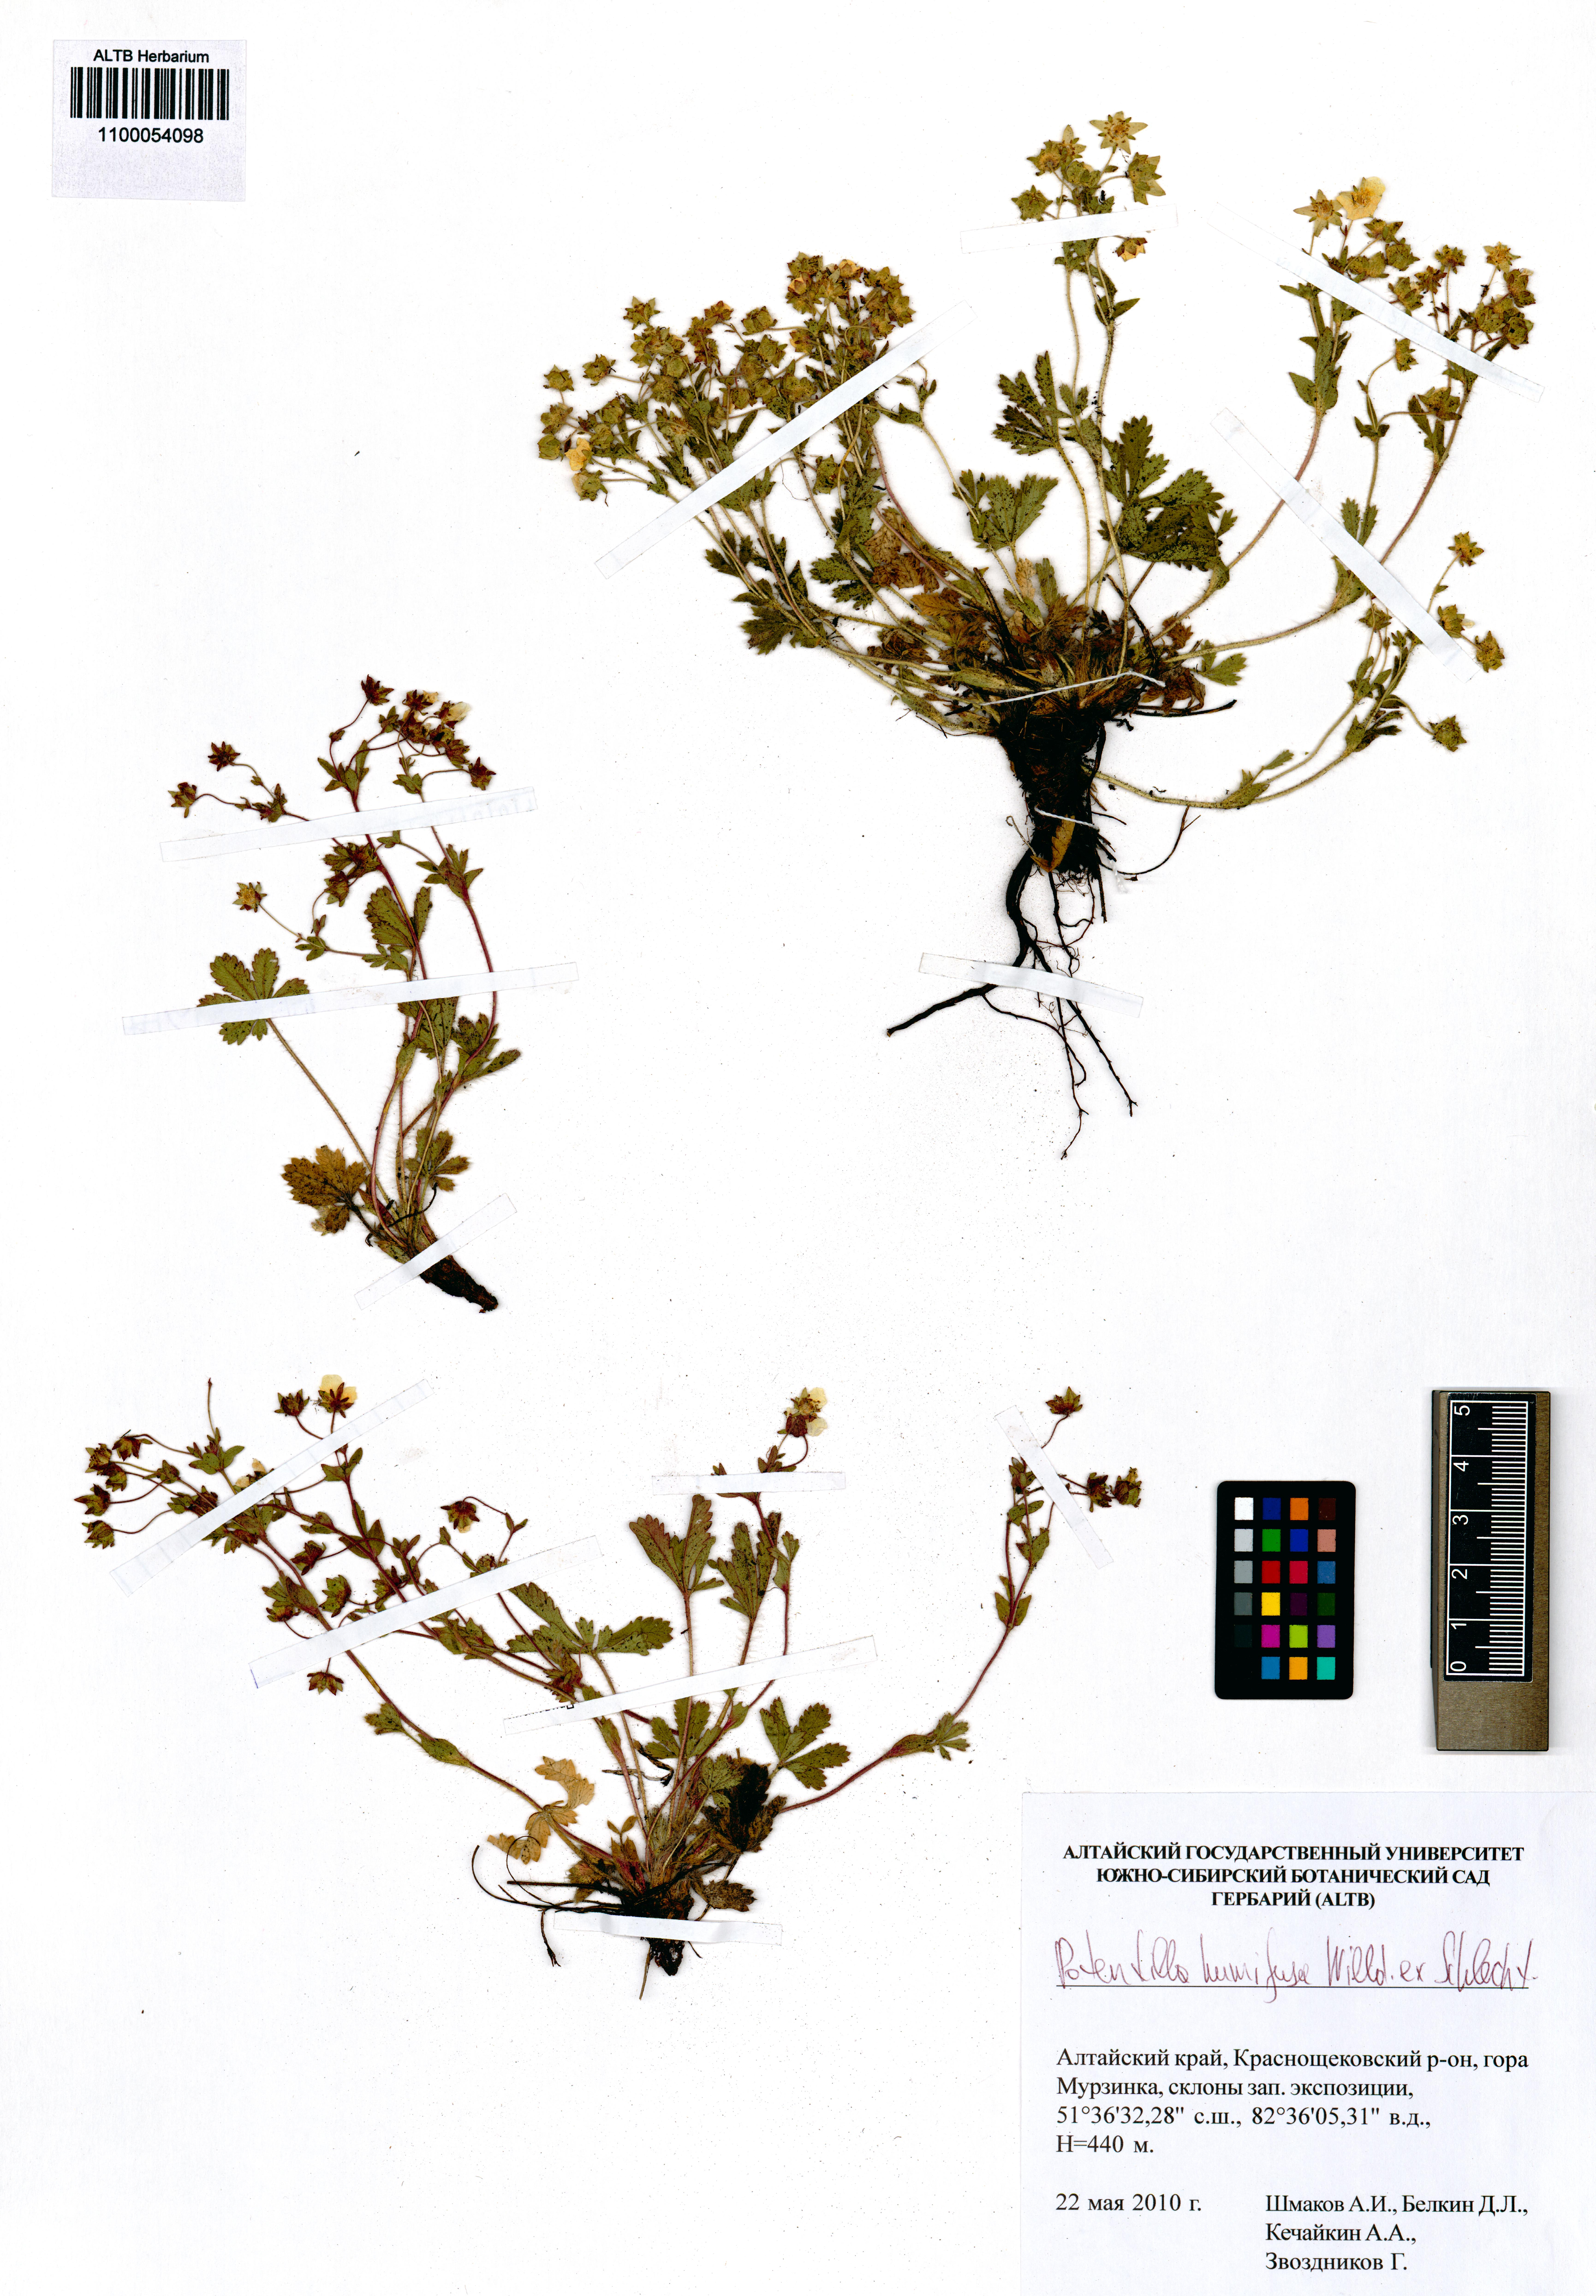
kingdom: Plantae
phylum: Tracheophyta
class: Magnoliopsida
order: Rosales
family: Rosaceae
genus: Potentilla
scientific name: Potentilla humifusa
